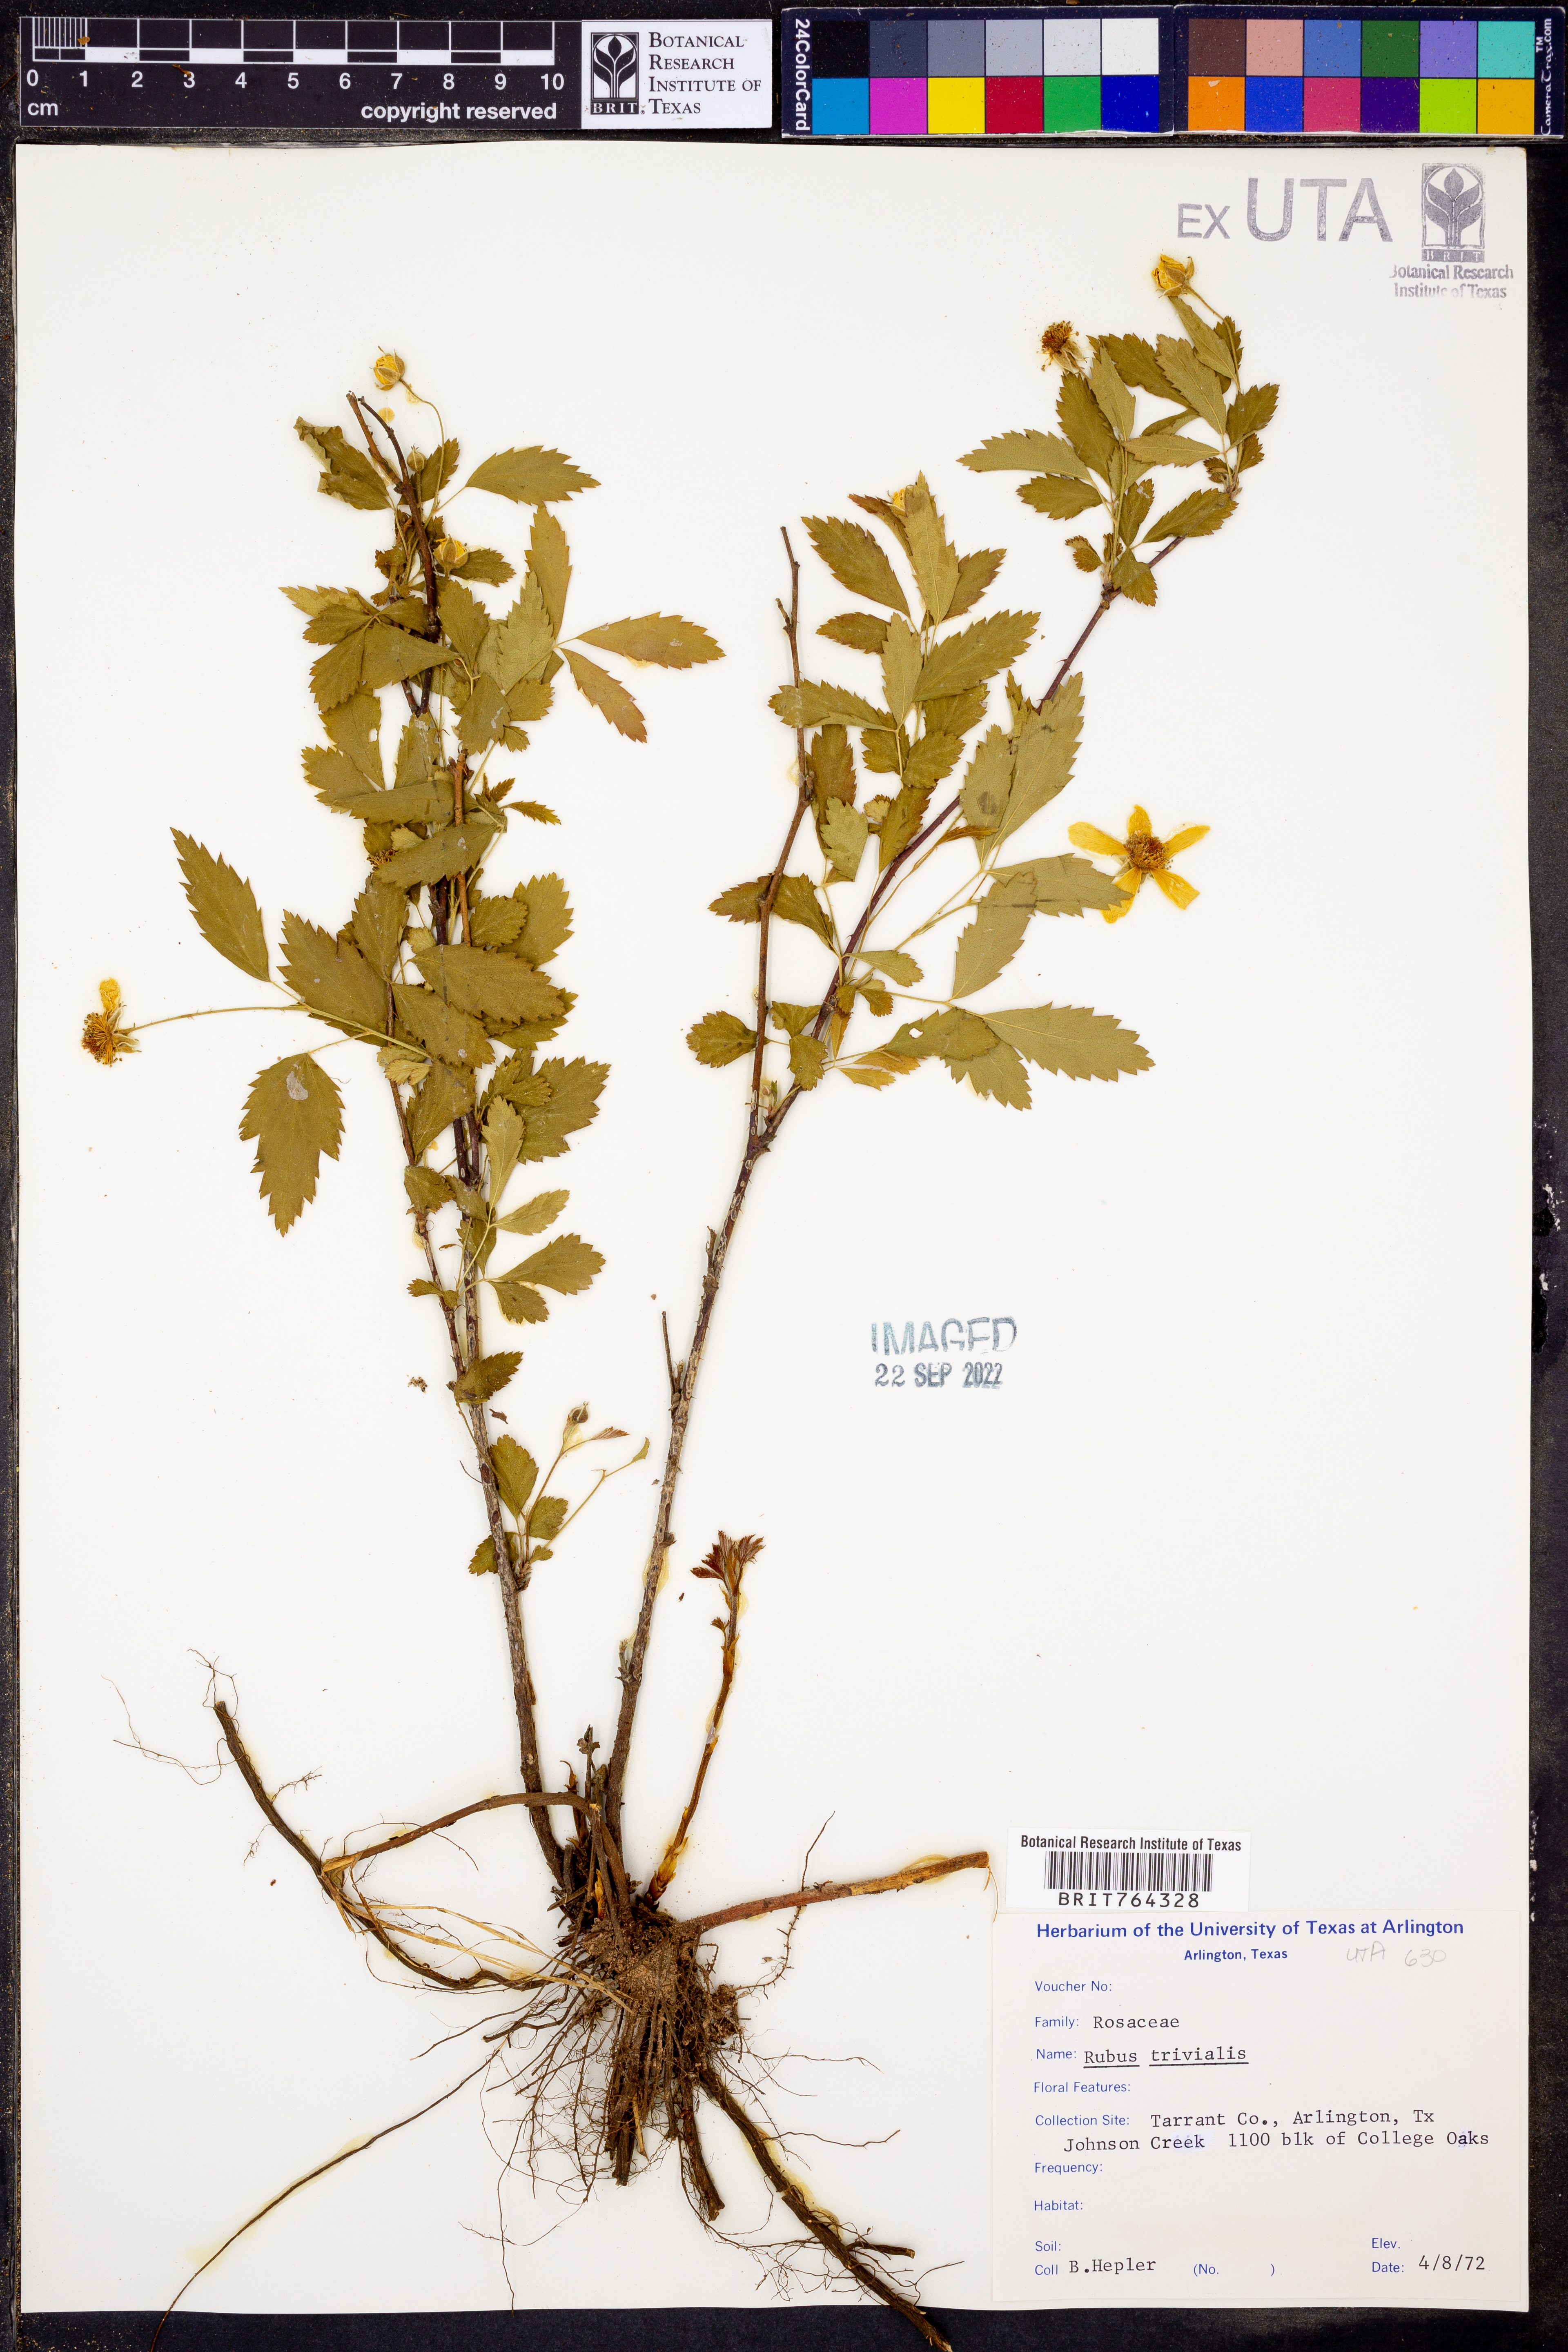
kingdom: Plantae
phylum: Tracheophyta
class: Magnoliopsida
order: Rosales
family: Rosaceae
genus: Rubus
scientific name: Rubus trivialis
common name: Southern dewberry
